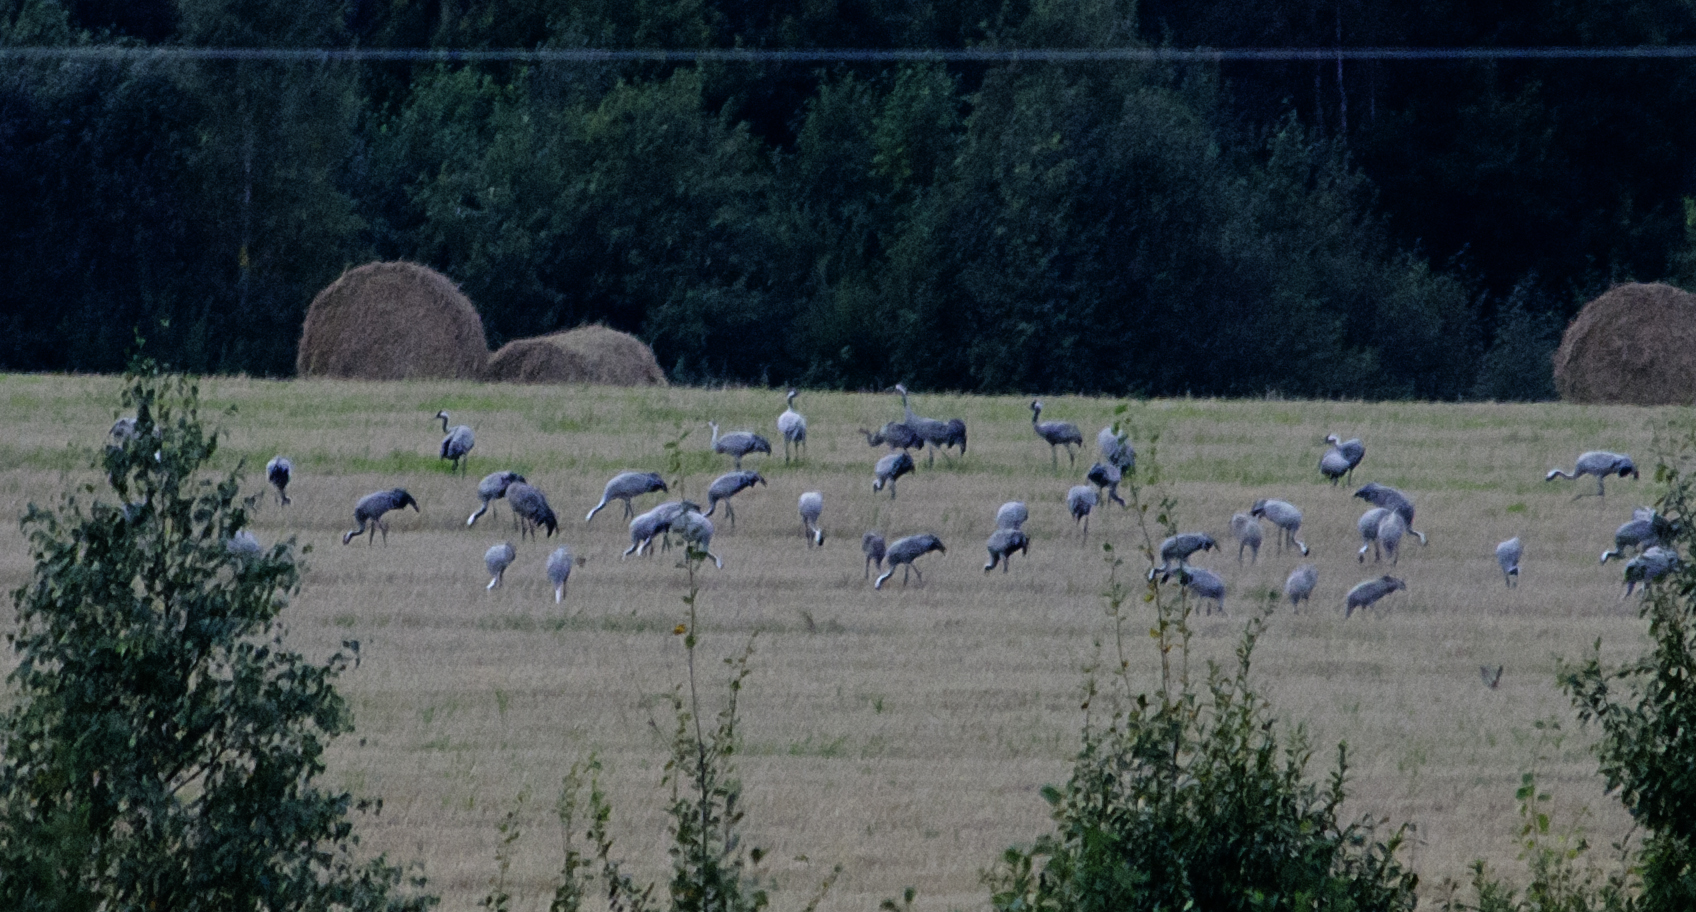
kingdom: Animalia
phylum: Chordata
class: Aves
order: Gruiformes
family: Gruidae
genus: Grus
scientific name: Grus grus
